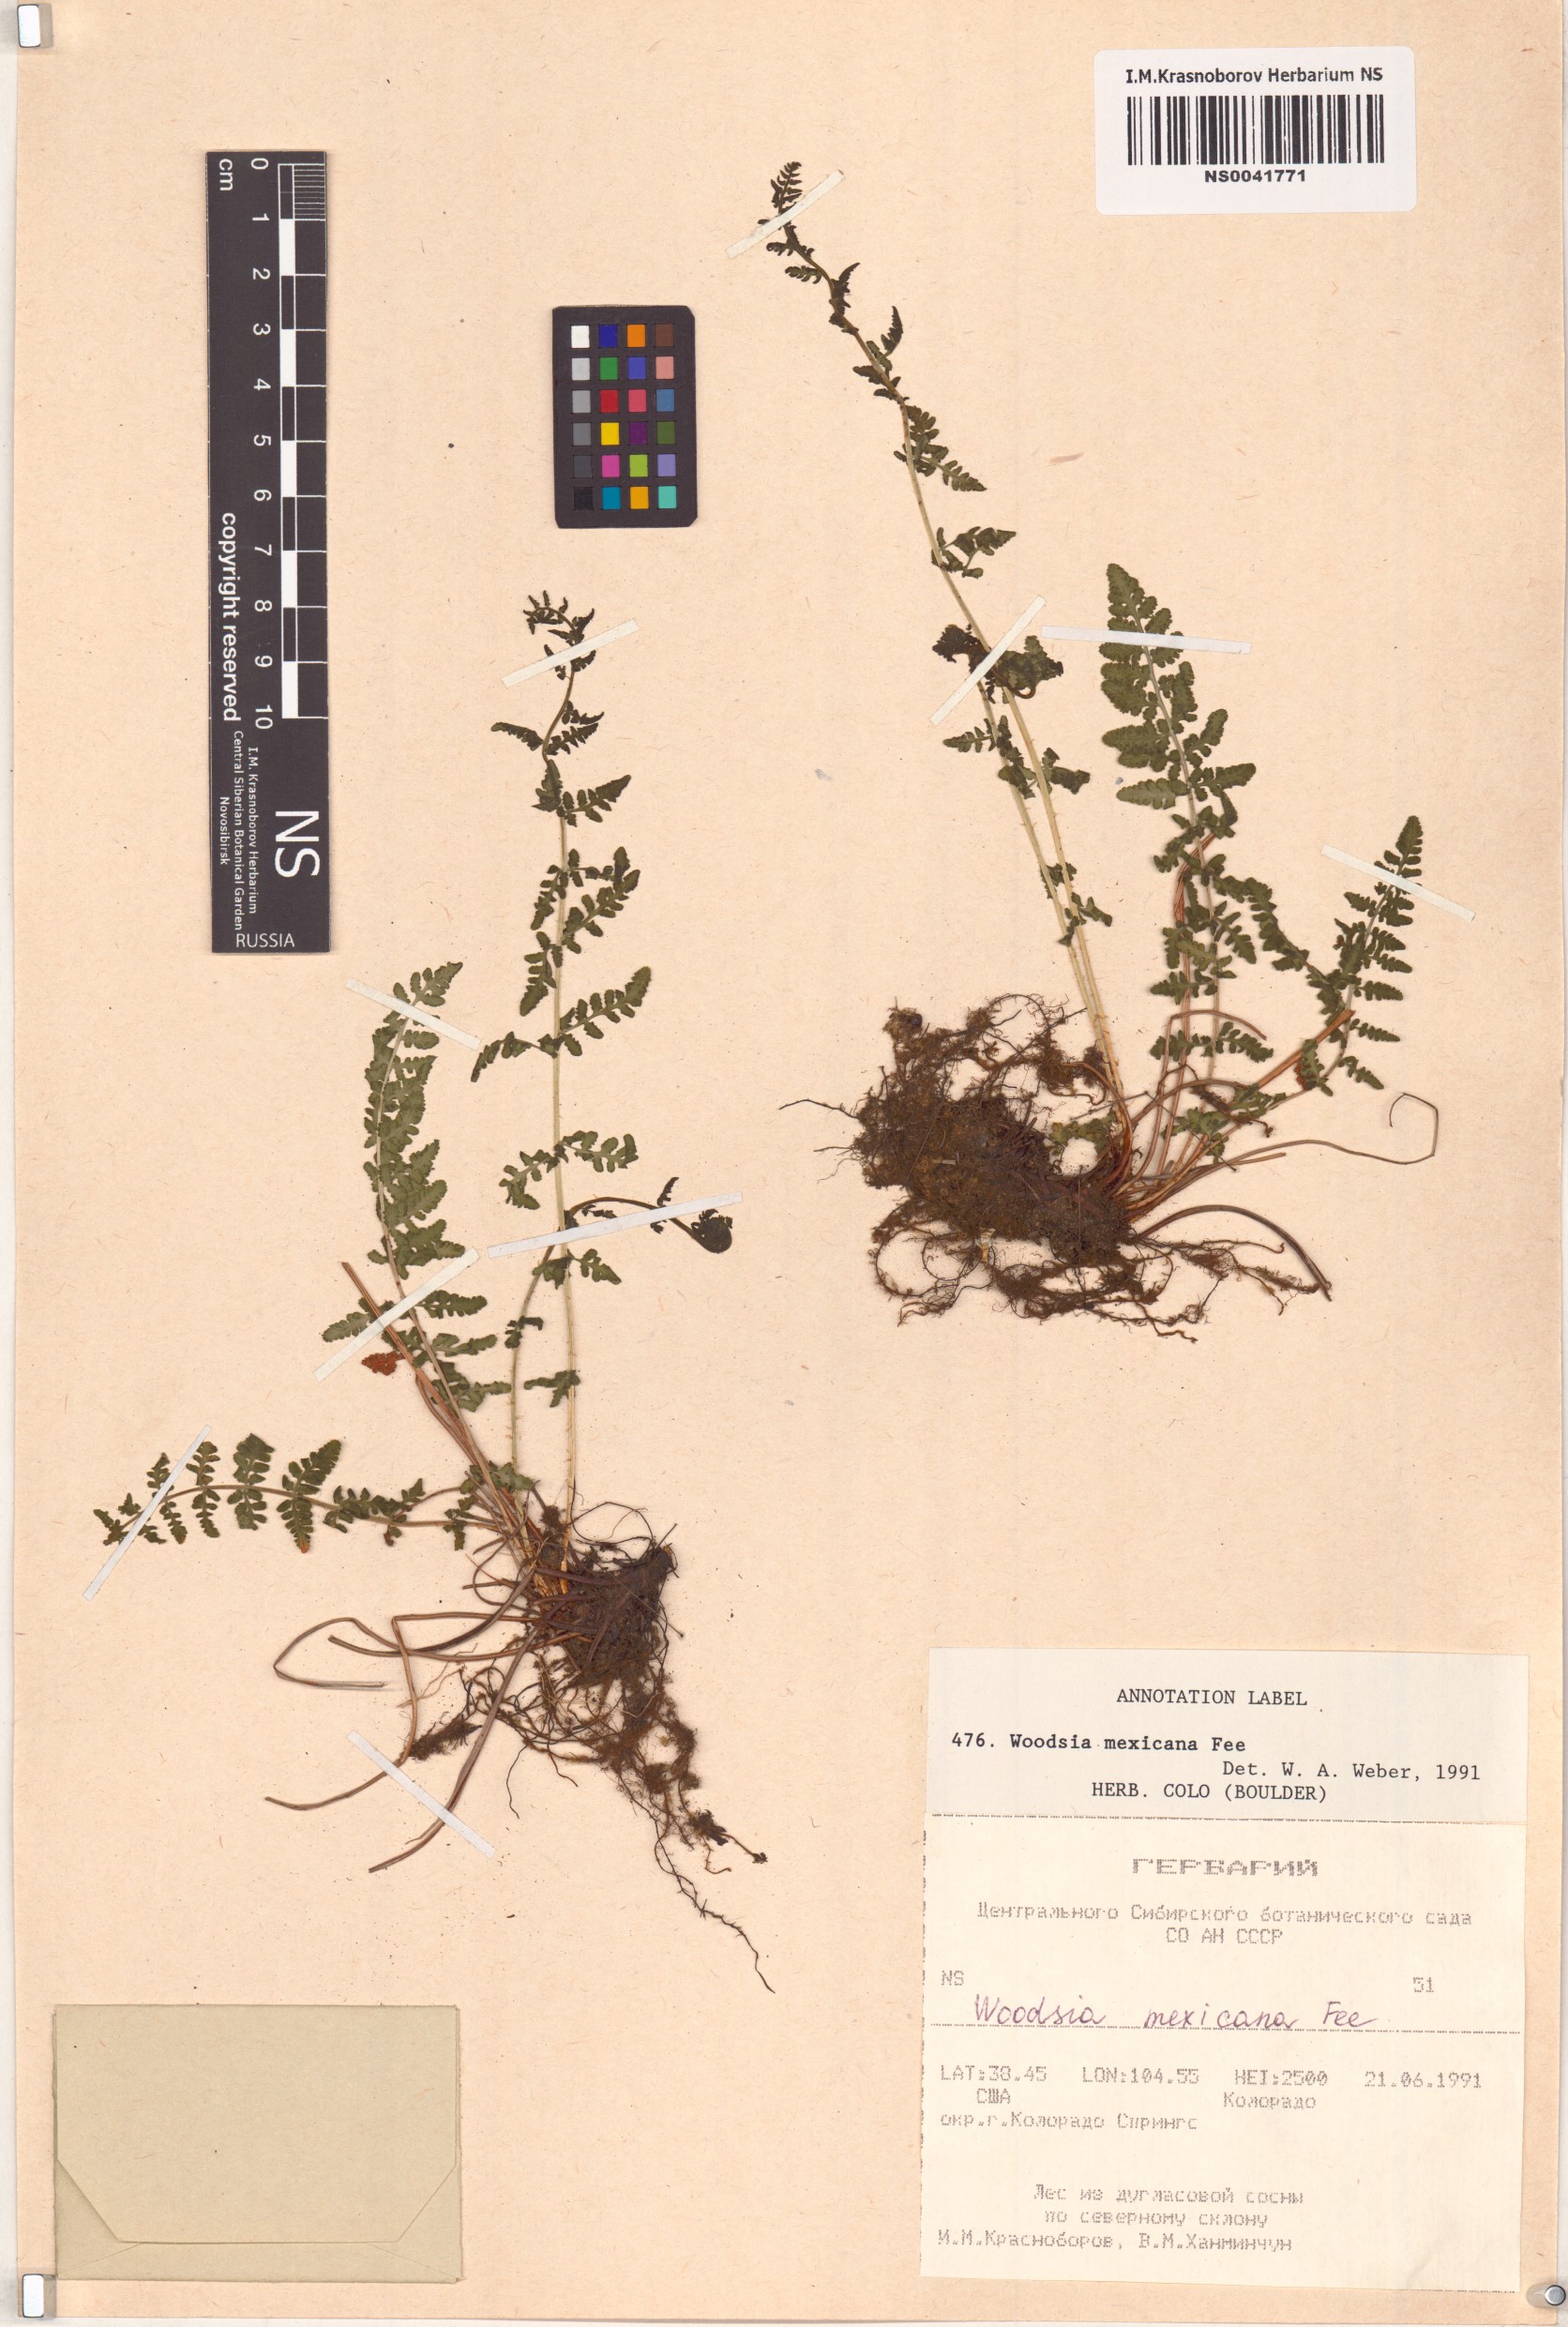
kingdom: Plantae
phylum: Tracheophyta
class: Polypodiopsida
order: Polypodiales
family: Woodsiaceae
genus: Physematium
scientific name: Physematium mexicanum
